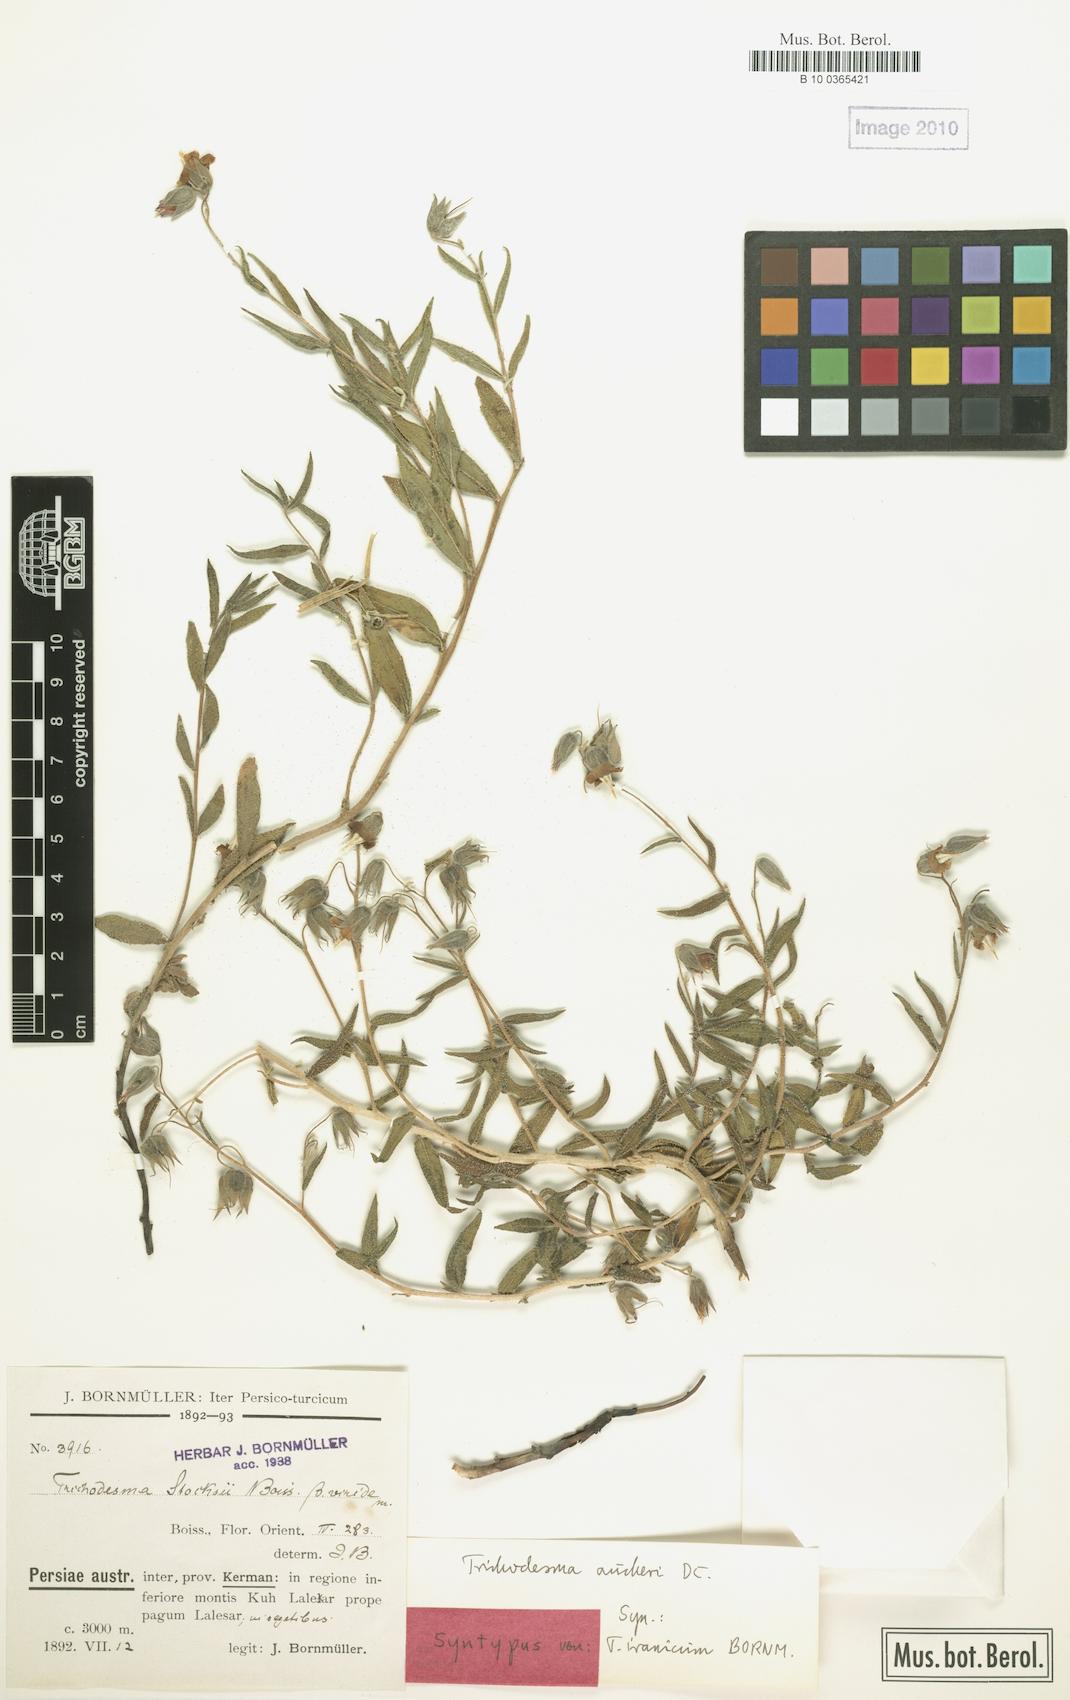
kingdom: Plantae
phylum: Tracheophyta
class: Magnoliopsida
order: Boraginales
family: Boraginaceae
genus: Trichodesma
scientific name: Trichodesma aucheri
